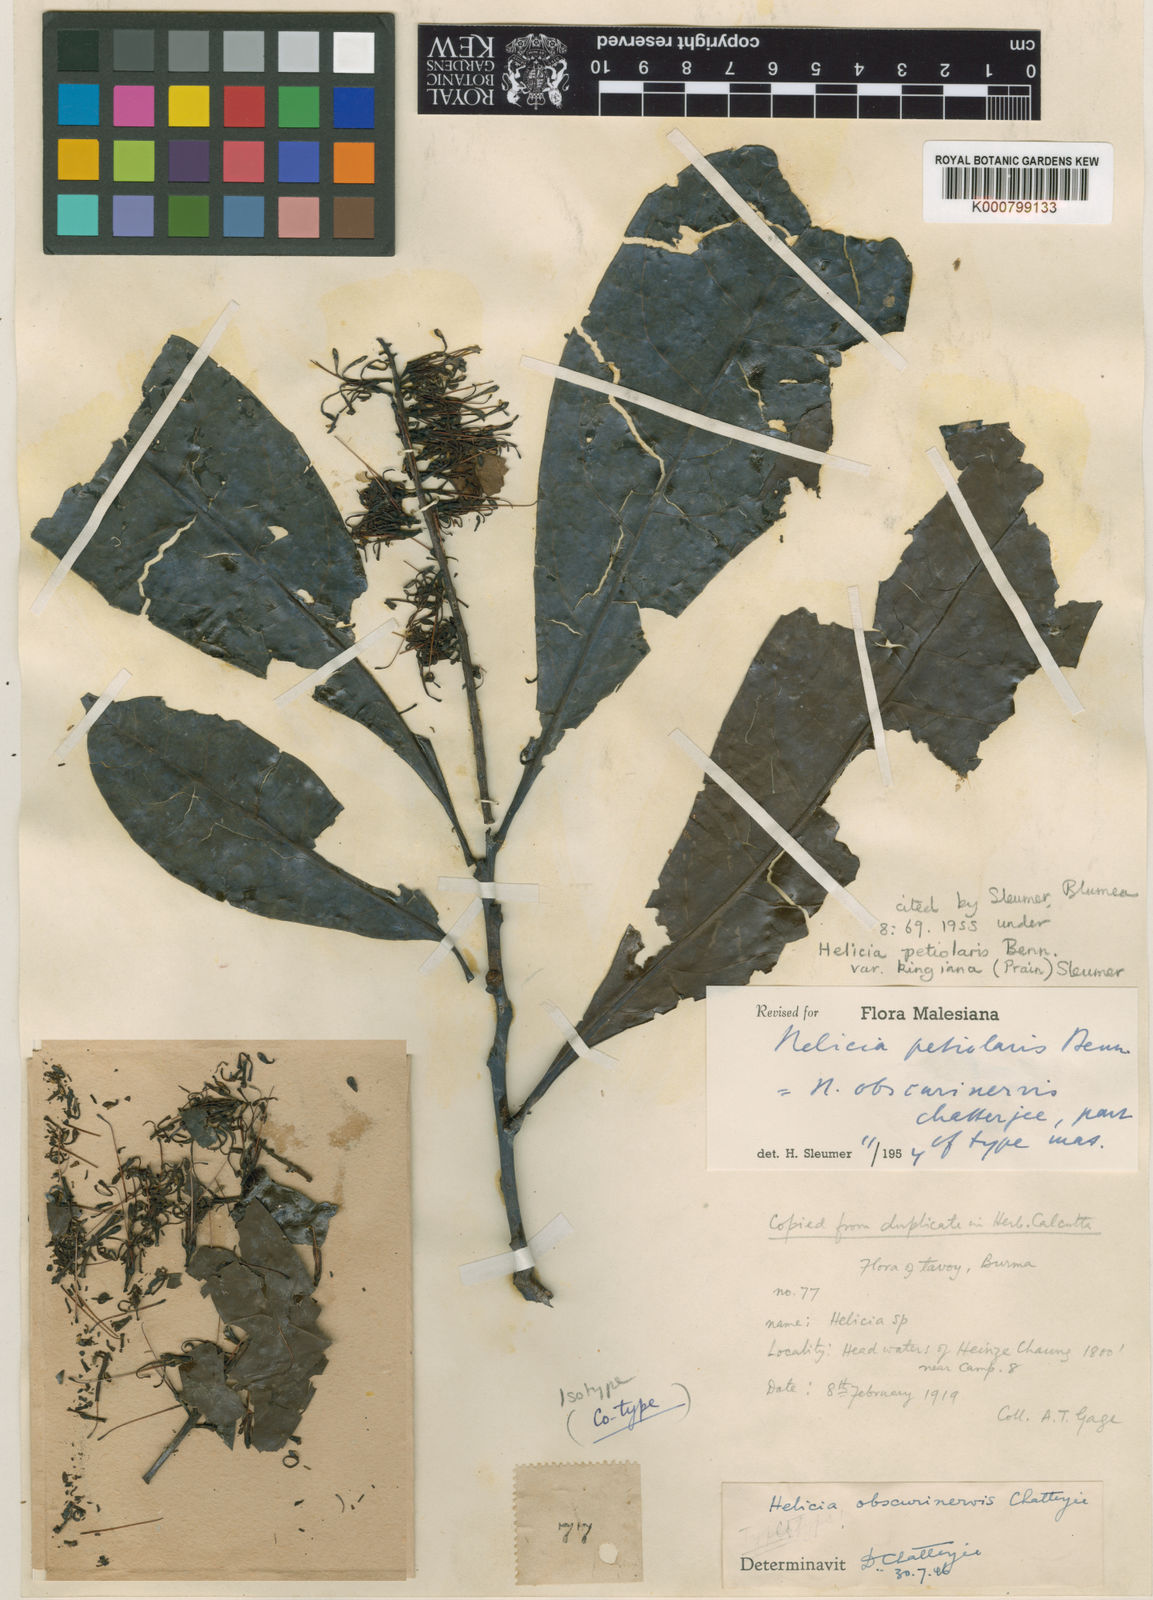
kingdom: Plantae
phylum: Tracheophyta
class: Magnoliopsida
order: Proteales
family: Proteaceae
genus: Helicia
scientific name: Helicia petiolaris
